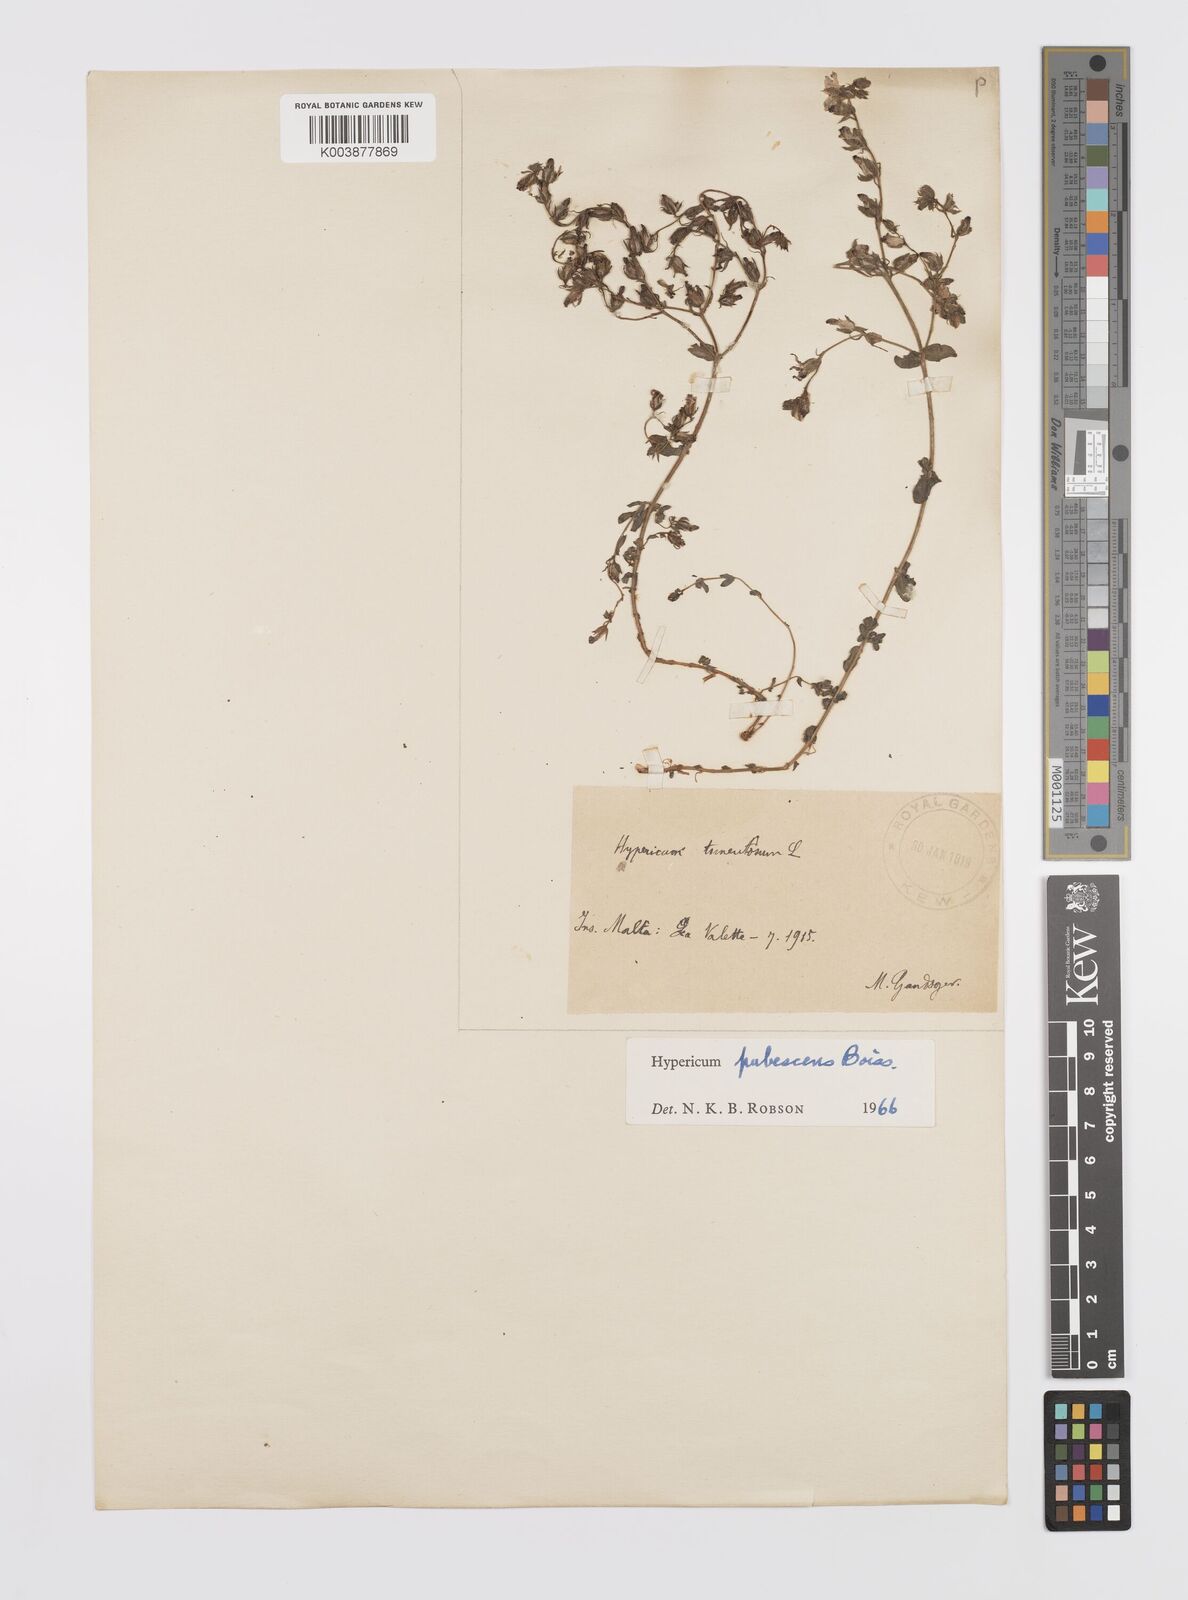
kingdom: Plantae
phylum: Tracheophyta
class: Magnoliopsida
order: Malpighiales
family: Hypericaceae
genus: Hypericum
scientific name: Hypericum pubescens
